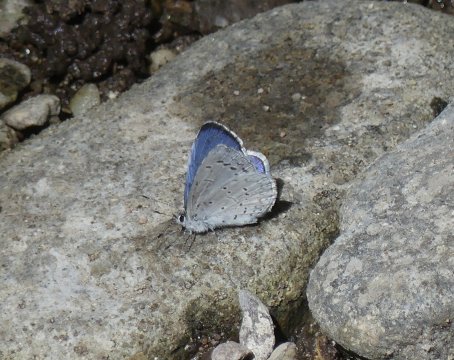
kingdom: Animalia
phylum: Arthropoda
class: Insecta
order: Lepidoptera
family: Lycaenidae
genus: Celastrina
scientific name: Celastrina ladon
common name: Echo Azure
